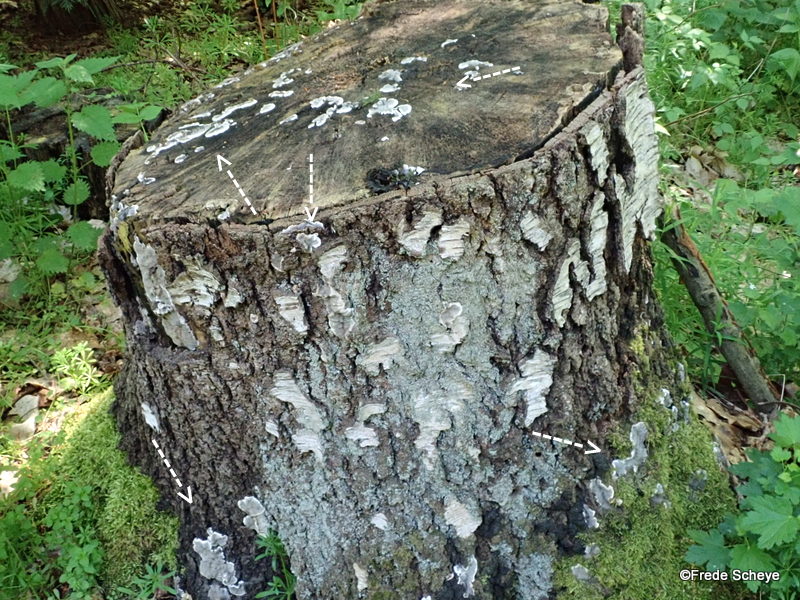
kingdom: Fungi
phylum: Ascomycota
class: Sordariomycetes
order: Xylariales
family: Xylariaceae
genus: Kretzschmaria
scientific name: Kretzschmaria deusta
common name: stor kulsvamp
